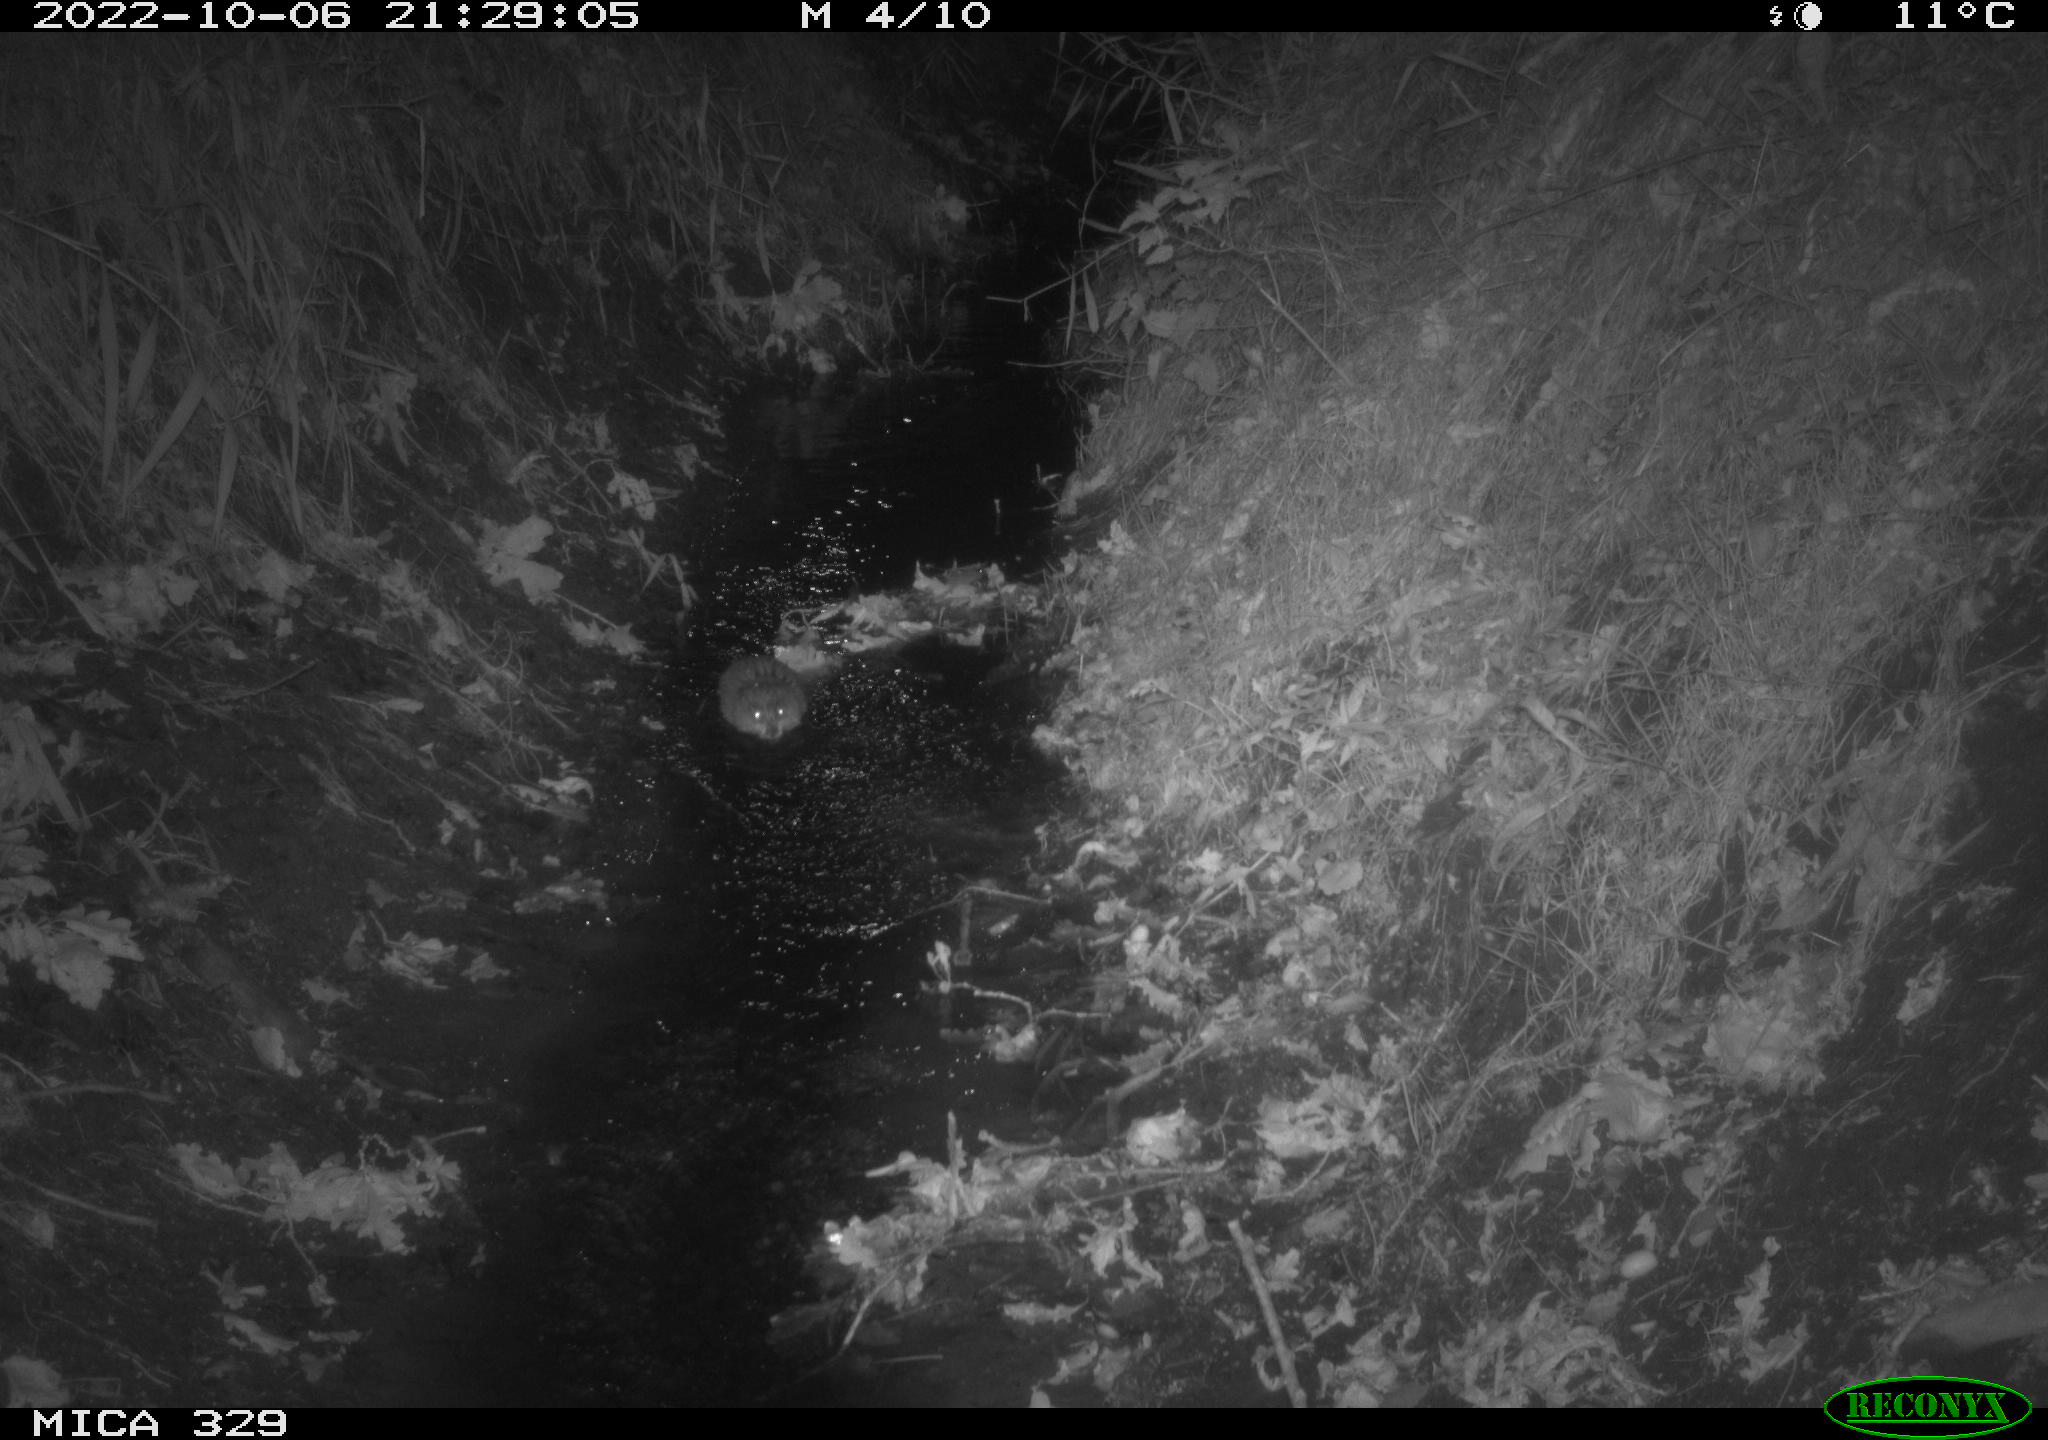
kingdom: Animalia
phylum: Chordata
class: Mammalia
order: Rodentia
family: Cricetidae
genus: Ondatra
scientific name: Ondatra zibethicus
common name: Muskrat
